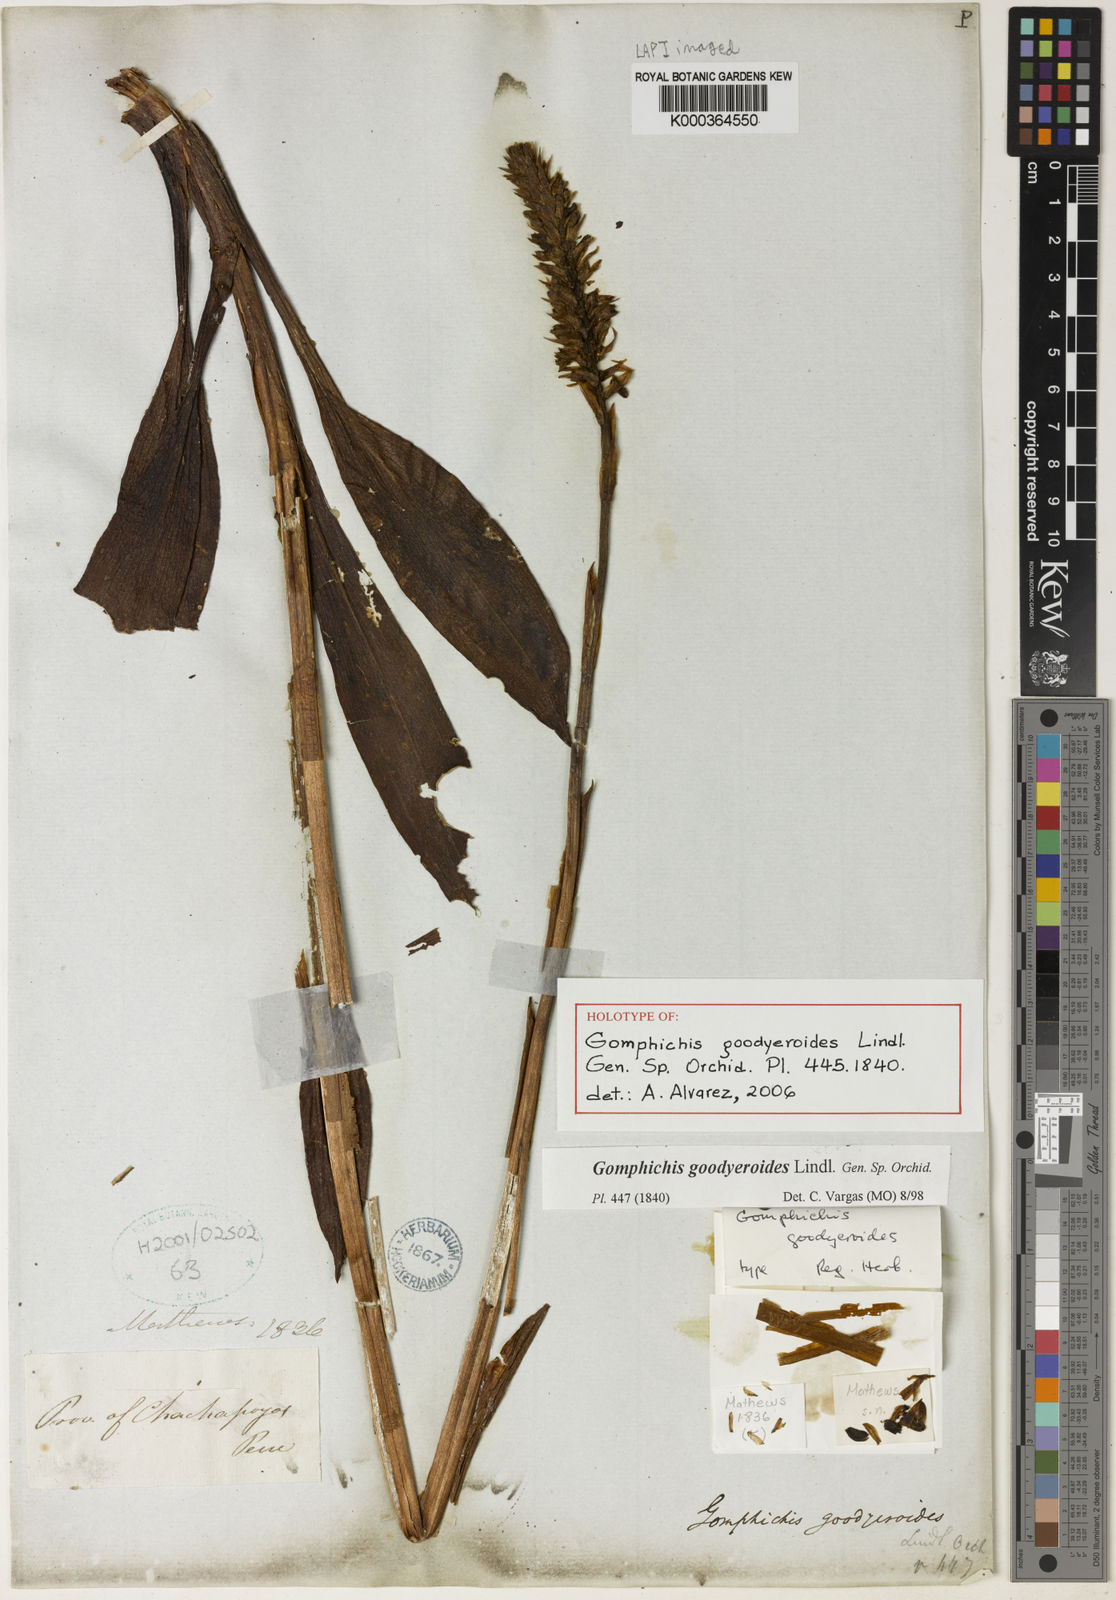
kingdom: Plantae
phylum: Tracheophyta
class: Liliopsida
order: Asparagales
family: Orchidaceae
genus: Gomphichis
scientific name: Gomphichis goodyeroides
